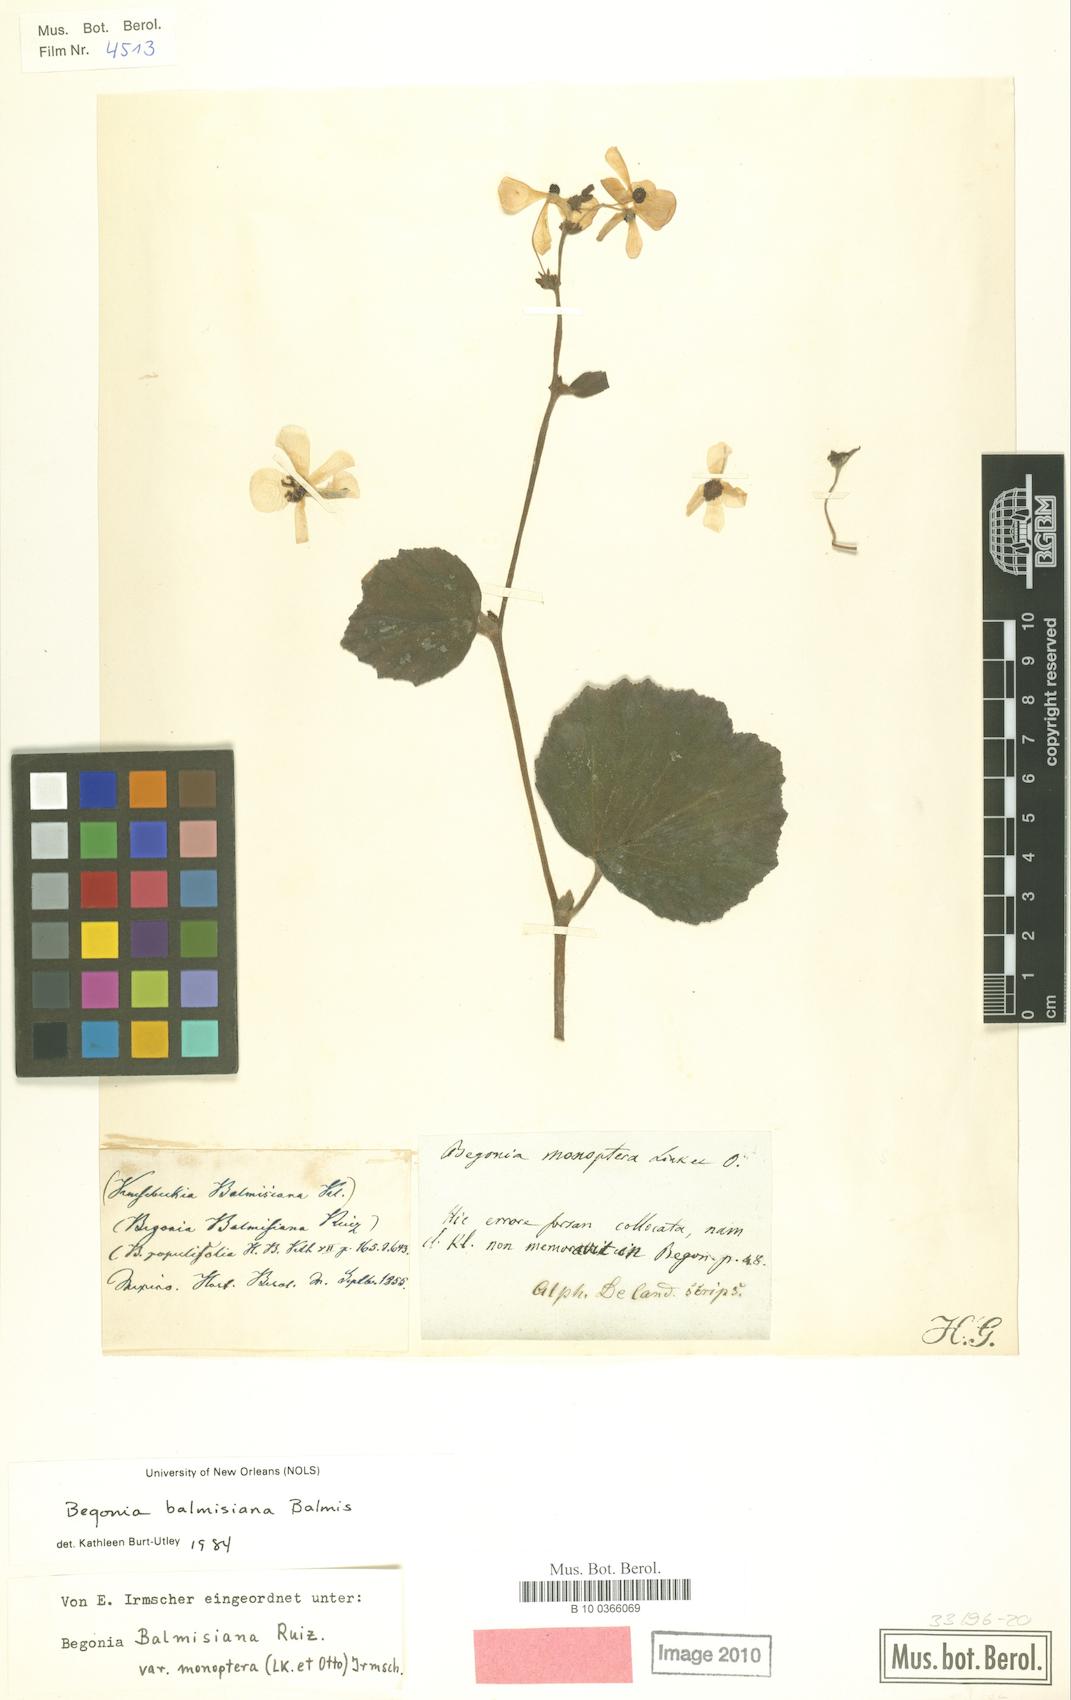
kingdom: Plantae
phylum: Tracheophyta
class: Magnoliopsida
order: Cucurbitales
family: Begoniaceae
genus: Begonia
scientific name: Begonia balmisiana
